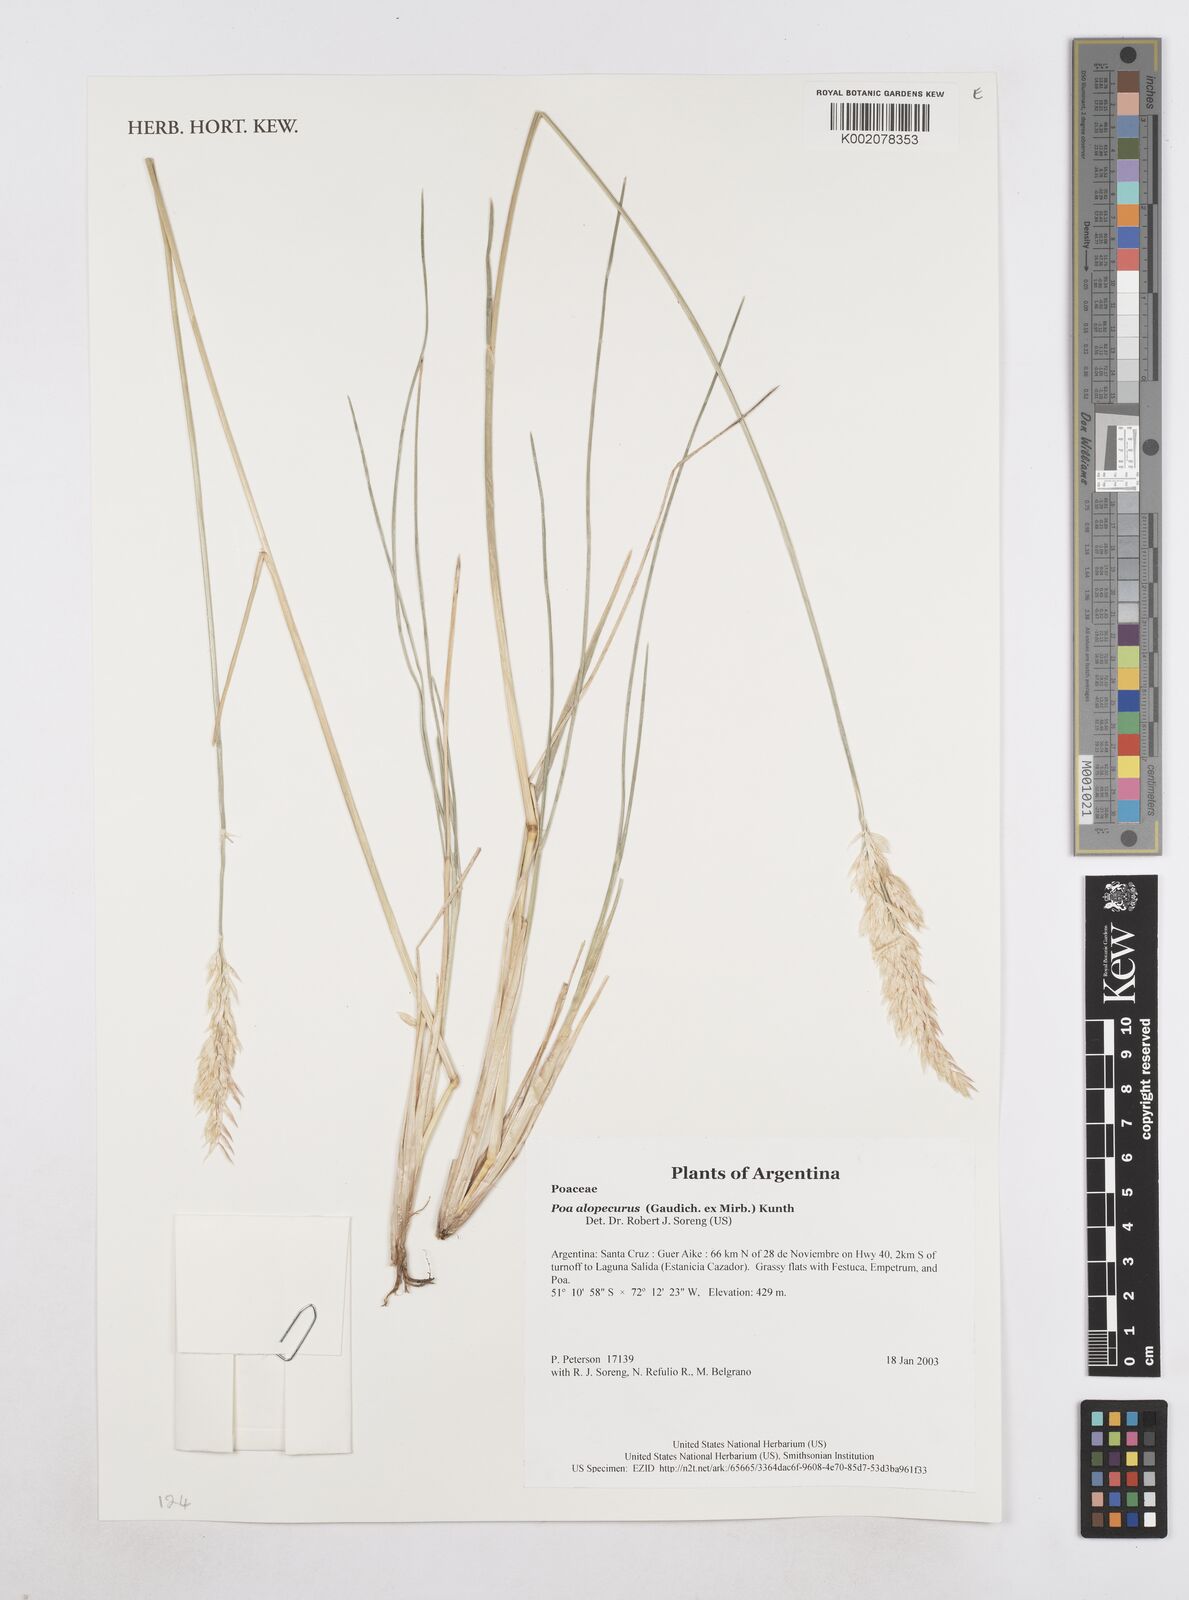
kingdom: Plantae
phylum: Tracheophyta
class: Liliopsida
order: Poales
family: Poaceae
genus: Poa
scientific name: Poa alopecurus
